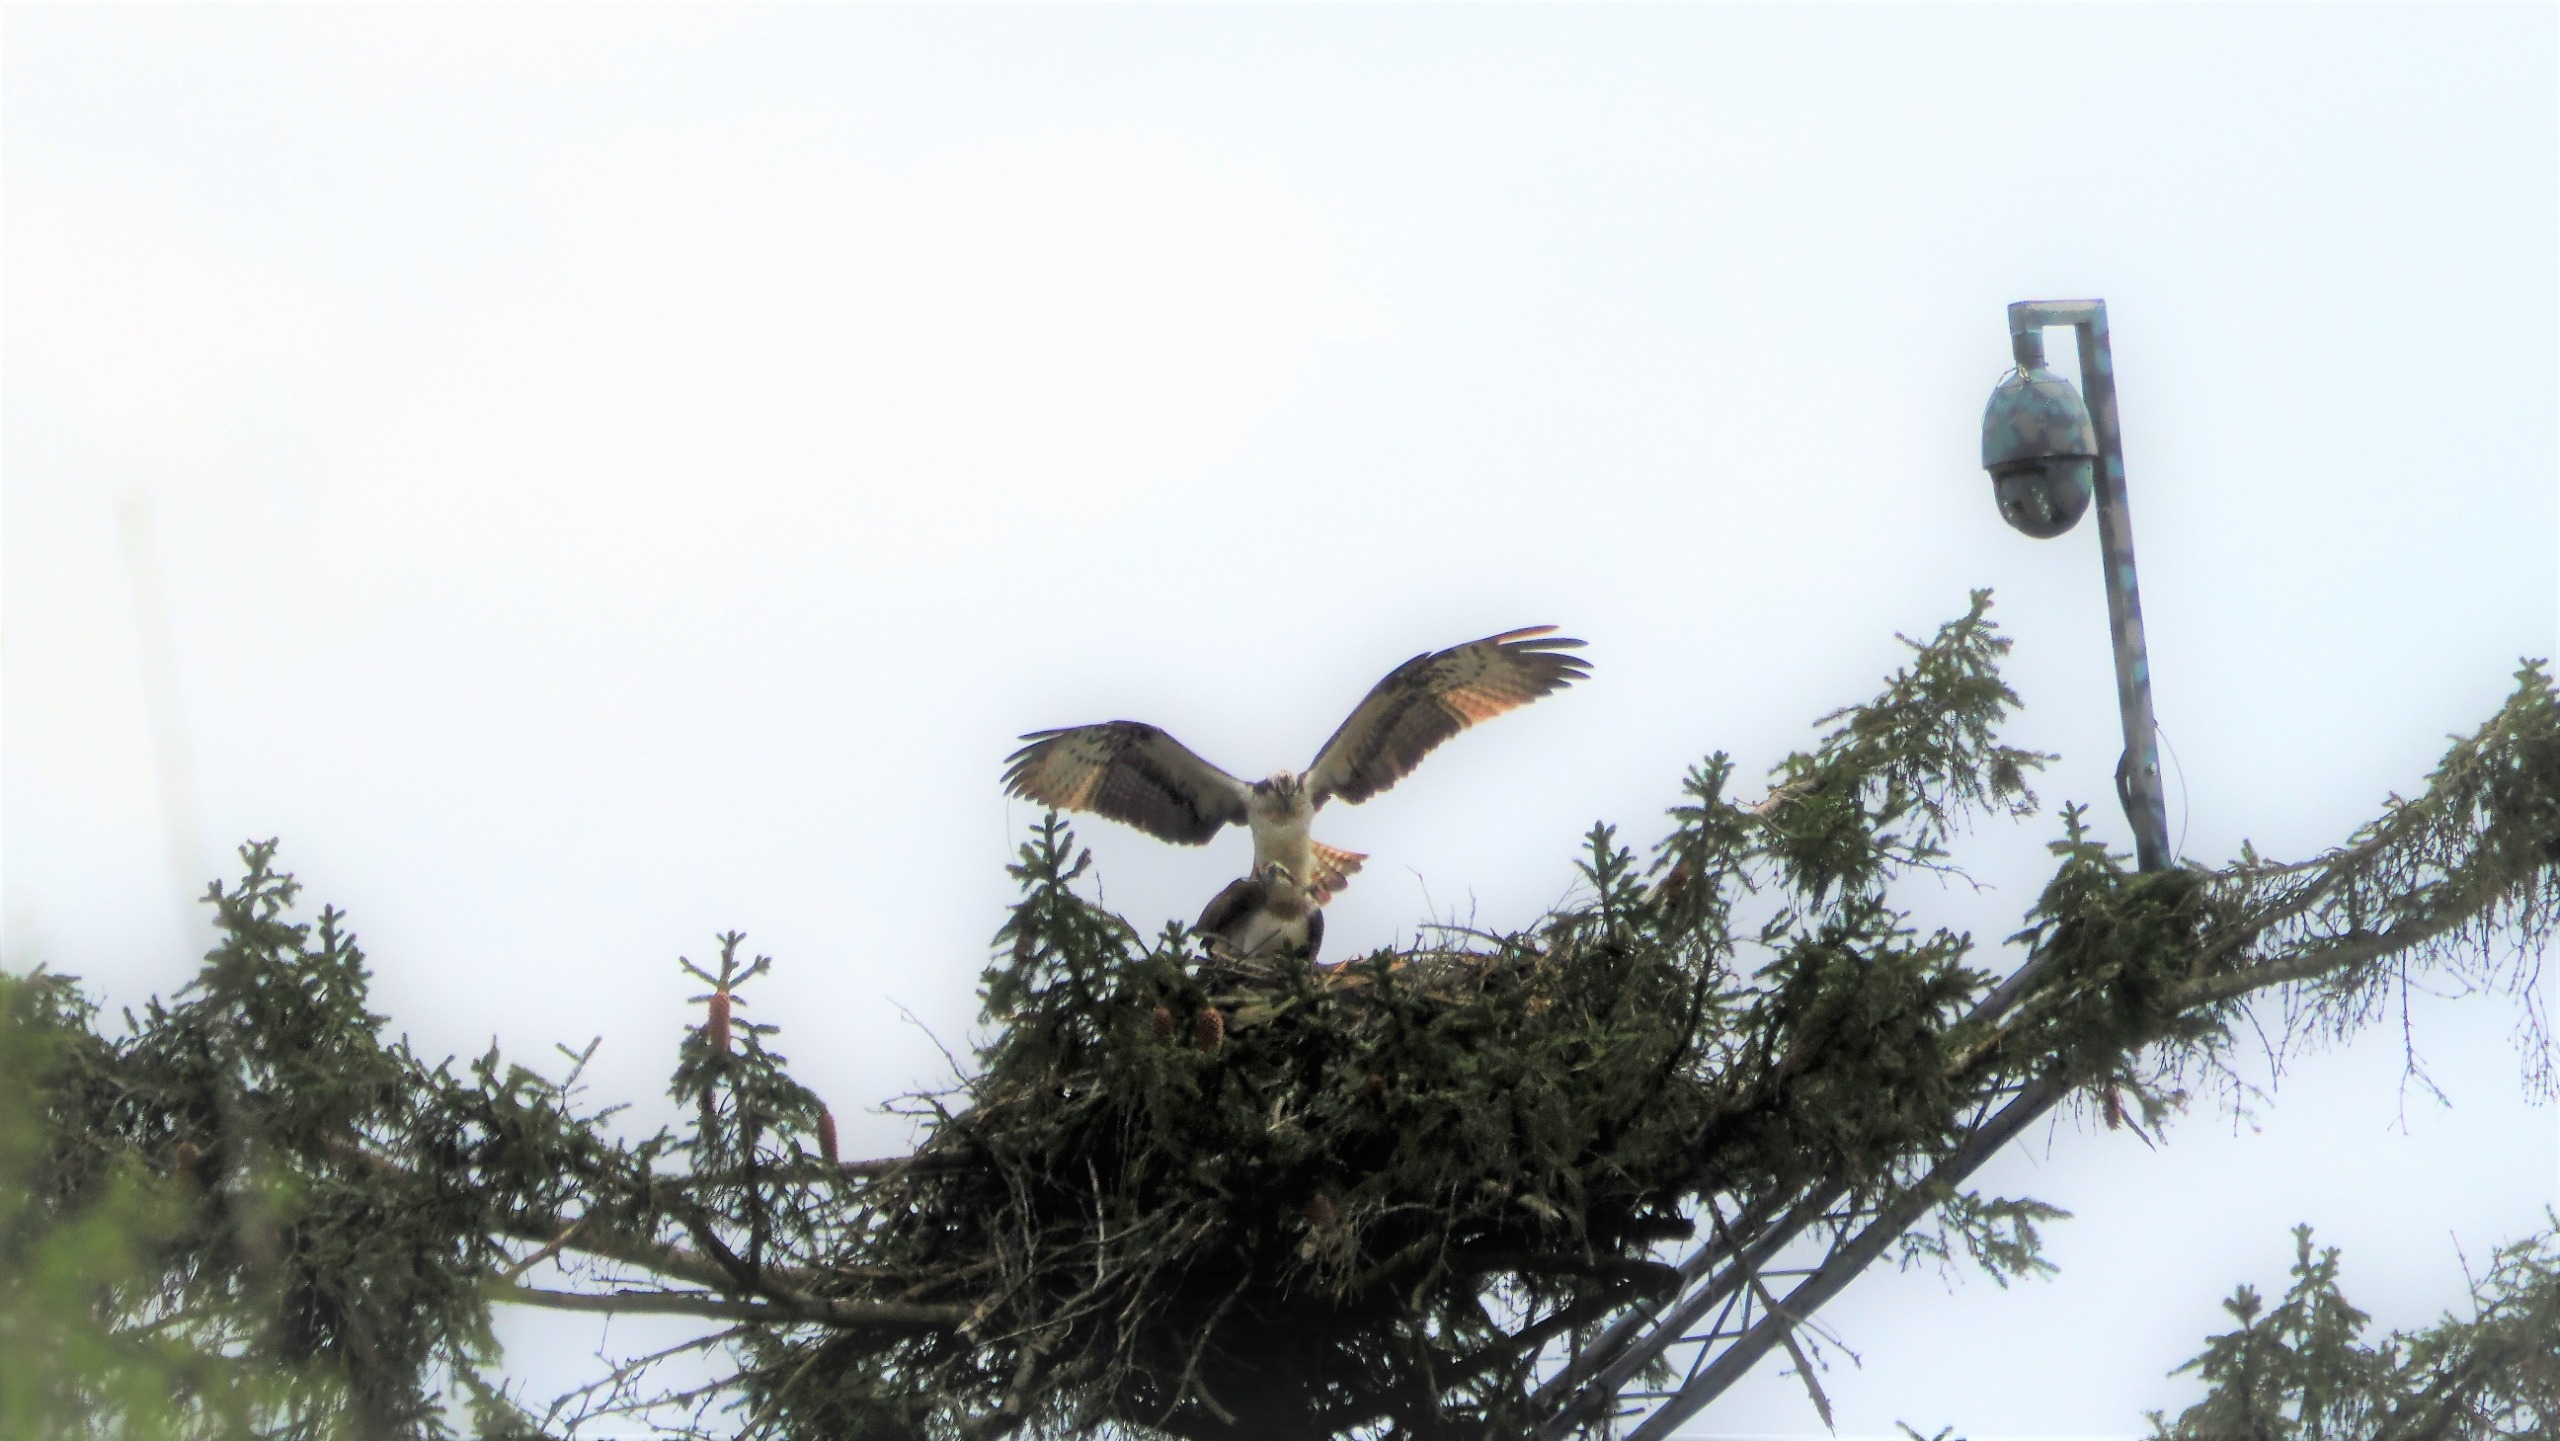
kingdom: Animalia
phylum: Chordata
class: Aves
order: Accipitriformes
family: Pandionidae
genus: Pandion
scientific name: Pandion haliaetus
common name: Fiskeørn
